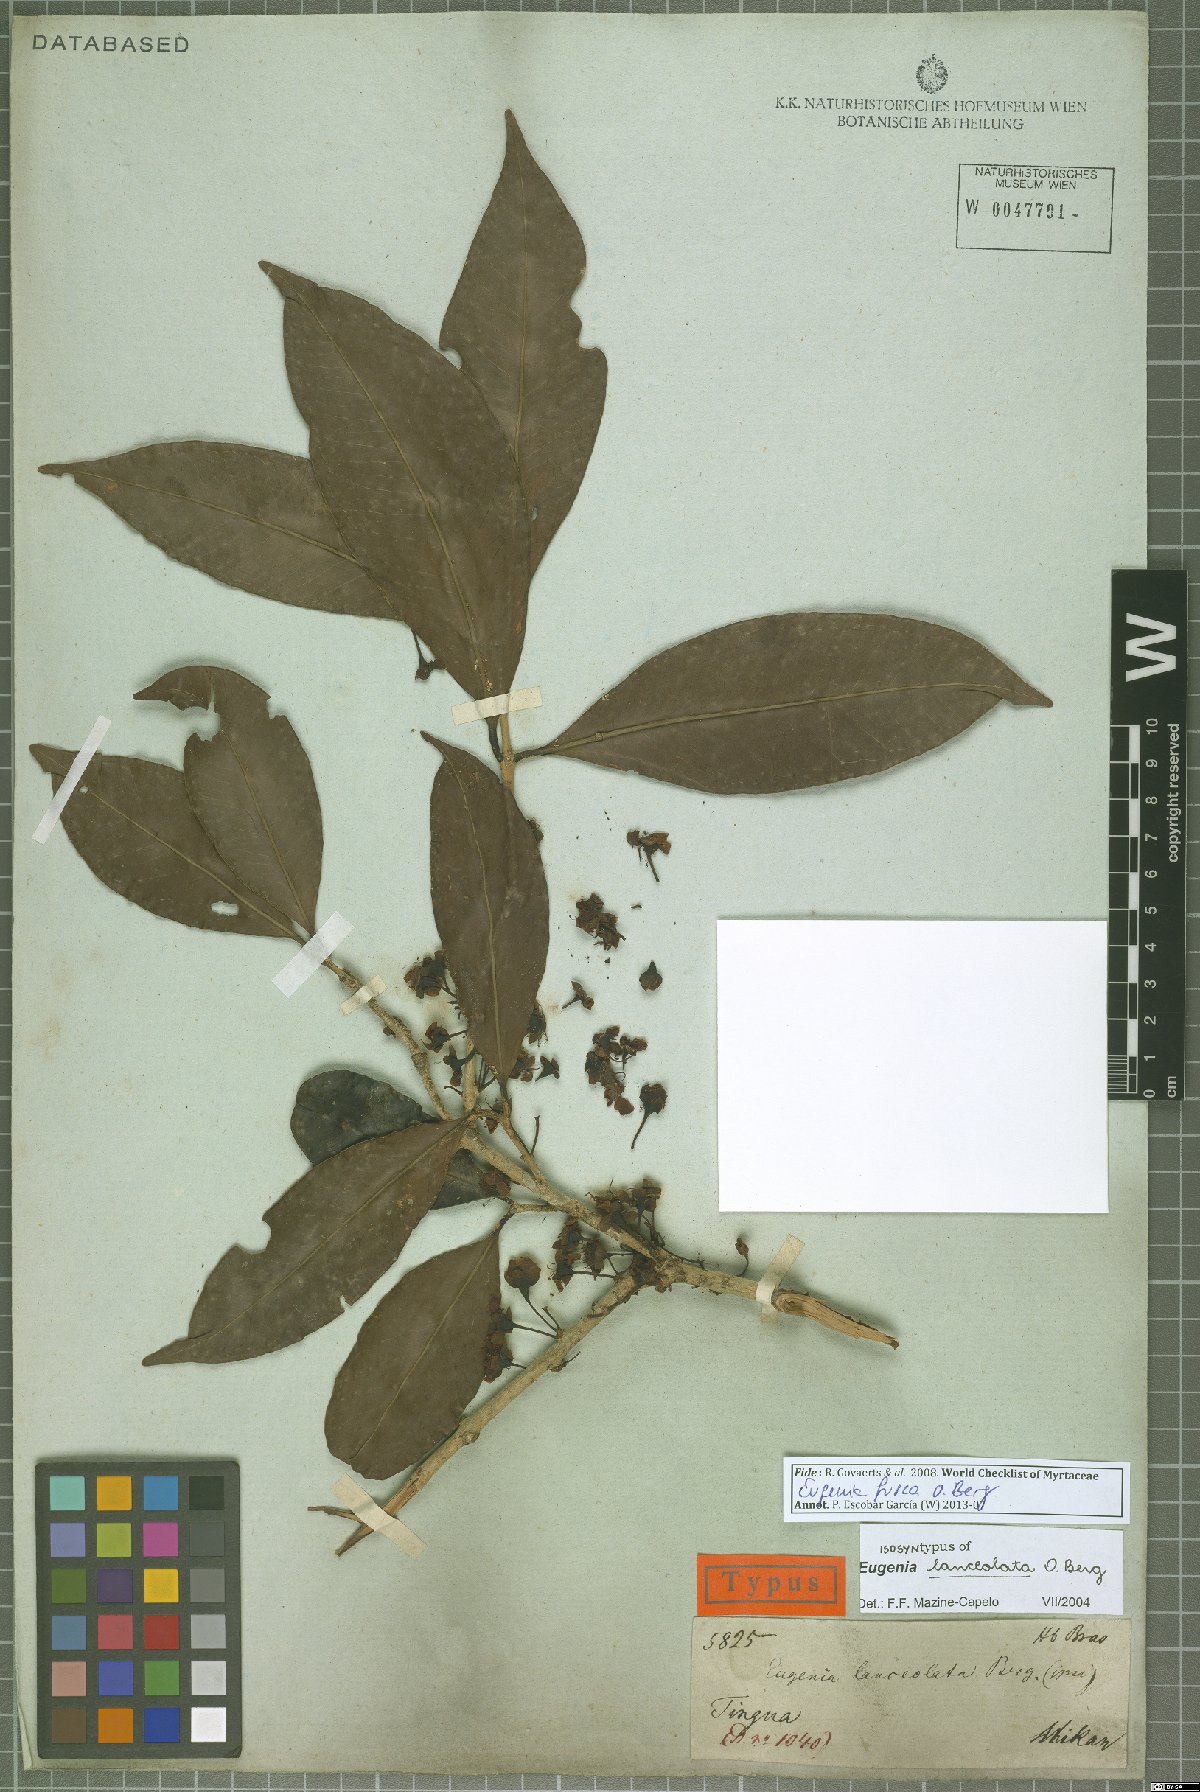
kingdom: Plantae
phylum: Tracheophyta
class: Magnoliopsida
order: Myrtales
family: Myrtaceae
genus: Eugenia
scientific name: Eugenia fusca
